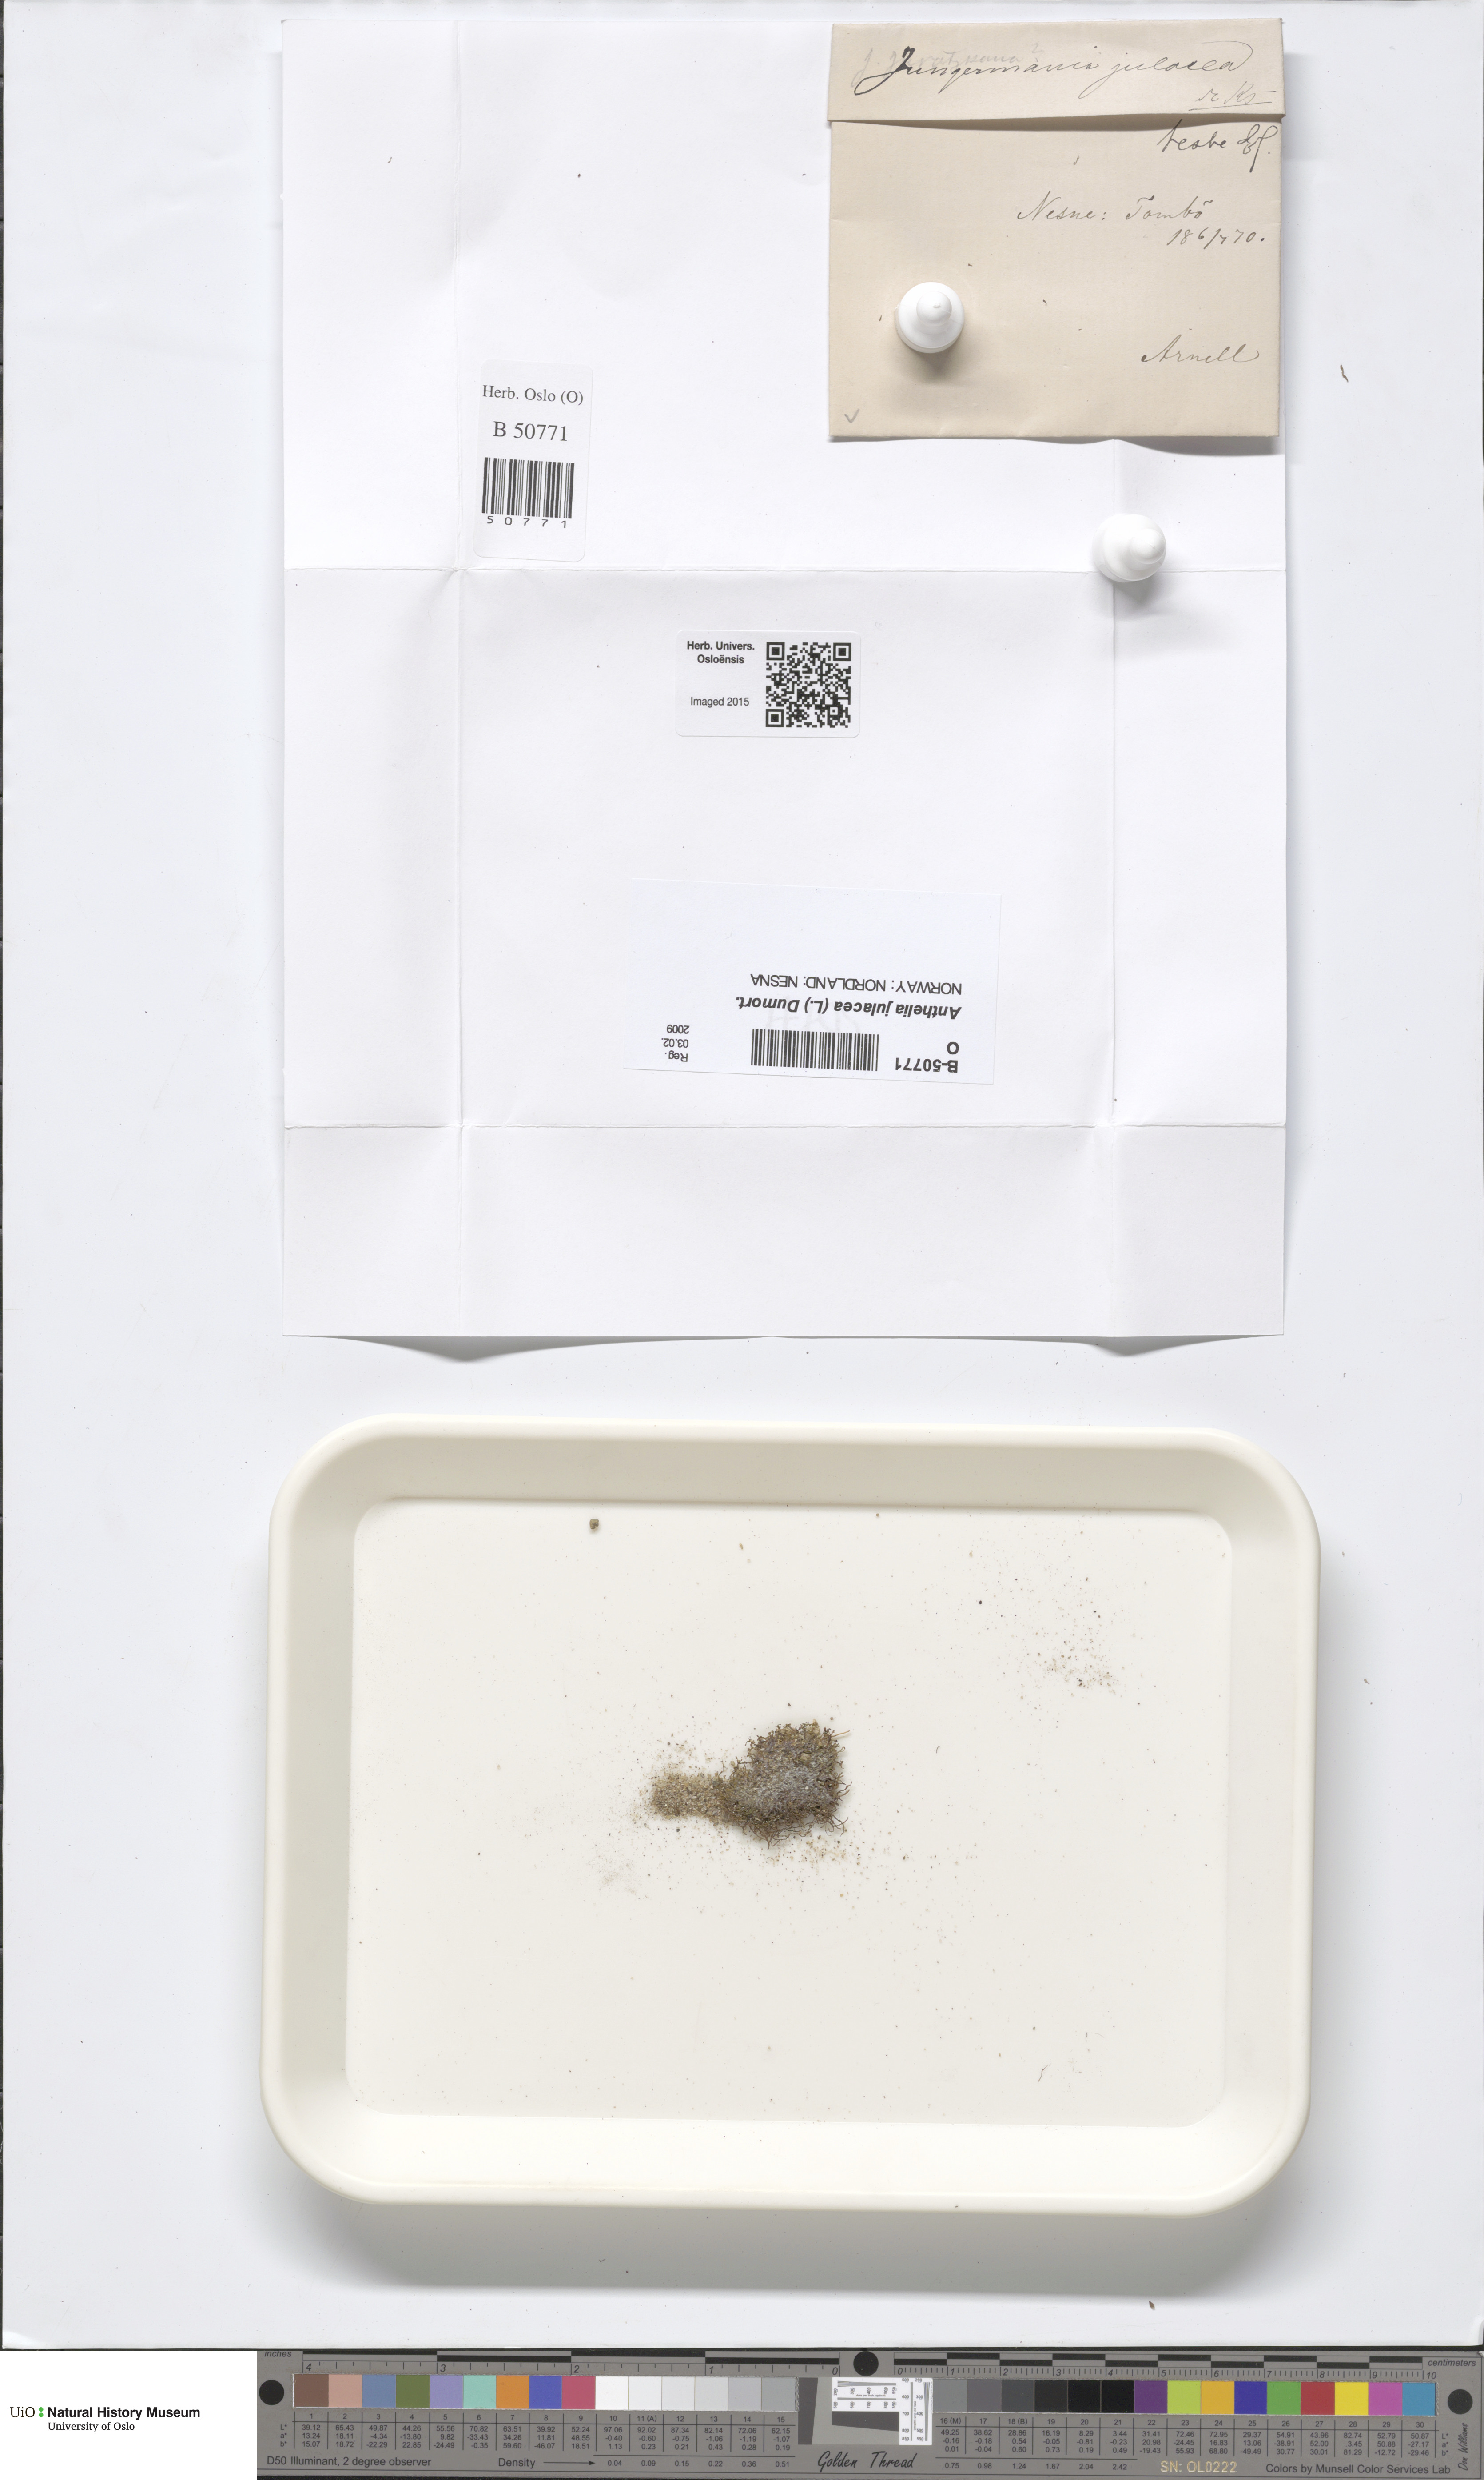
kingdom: Plantae
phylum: Marchantiophyta
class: Jungermanniopsida
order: Jungermanniales
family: Antheliaceae
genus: Anthelia
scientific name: Anthelia julacea
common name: Alpine silverwort
